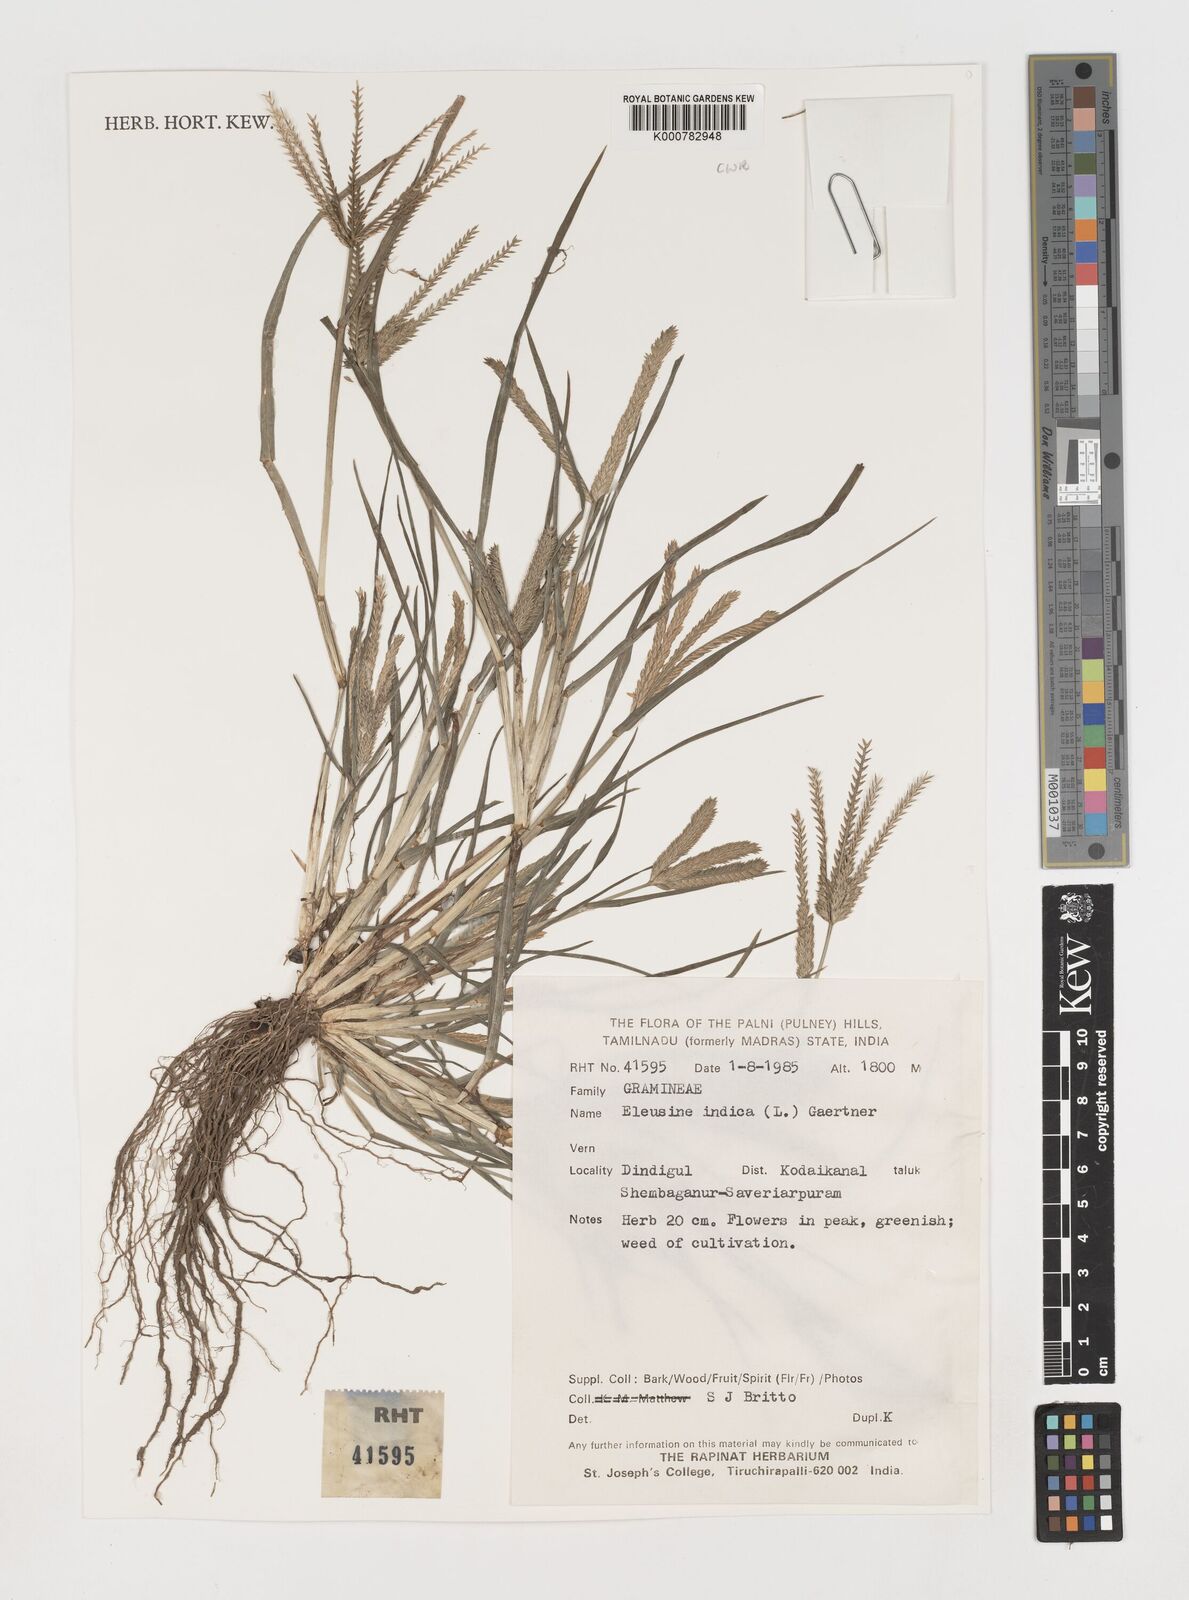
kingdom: Plantae
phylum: Tracheophyta
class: Liliopsida
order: Poales
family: Poaceae
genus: Eleusine
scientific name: Eleusine indica
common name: Yard-grass
